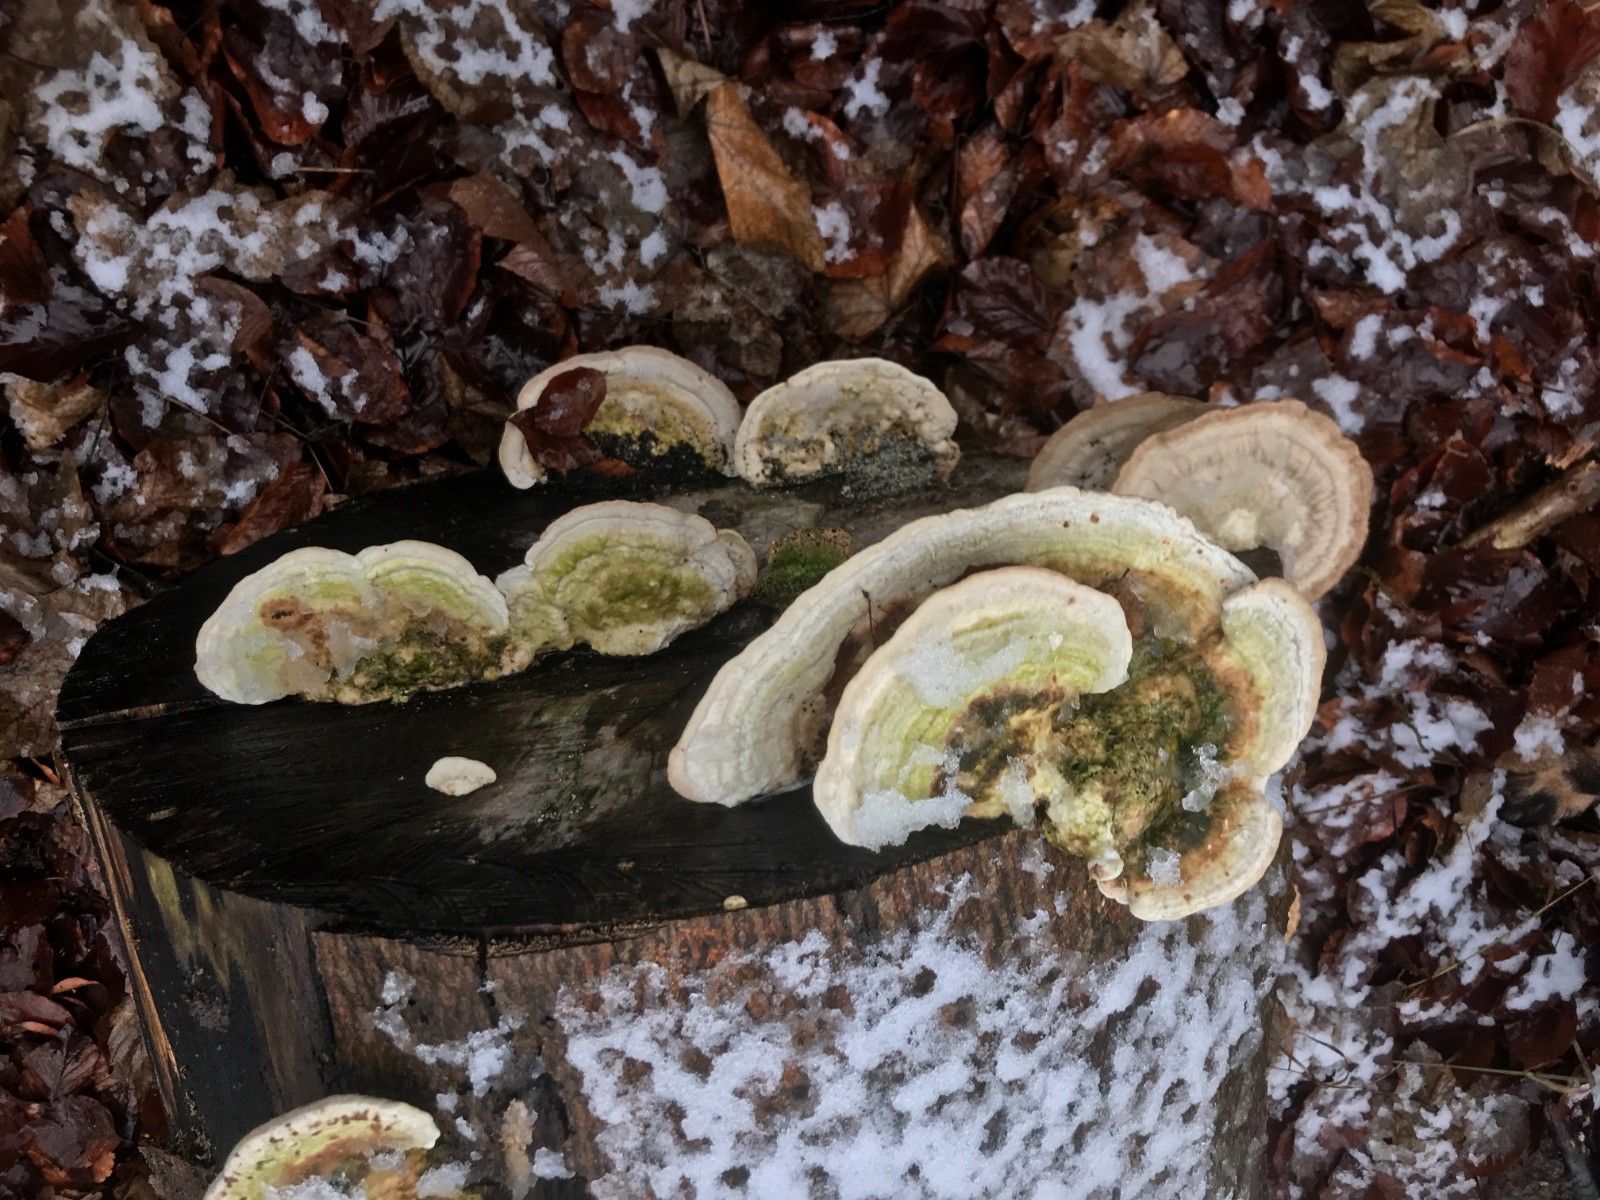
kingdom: Fungi
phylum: Basidiomycota
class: Agaricomycetes
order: Polyporales
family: Polyporaceae
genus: Trametes
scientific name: Trametes gibbosa
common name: puklet læderporesvamp
